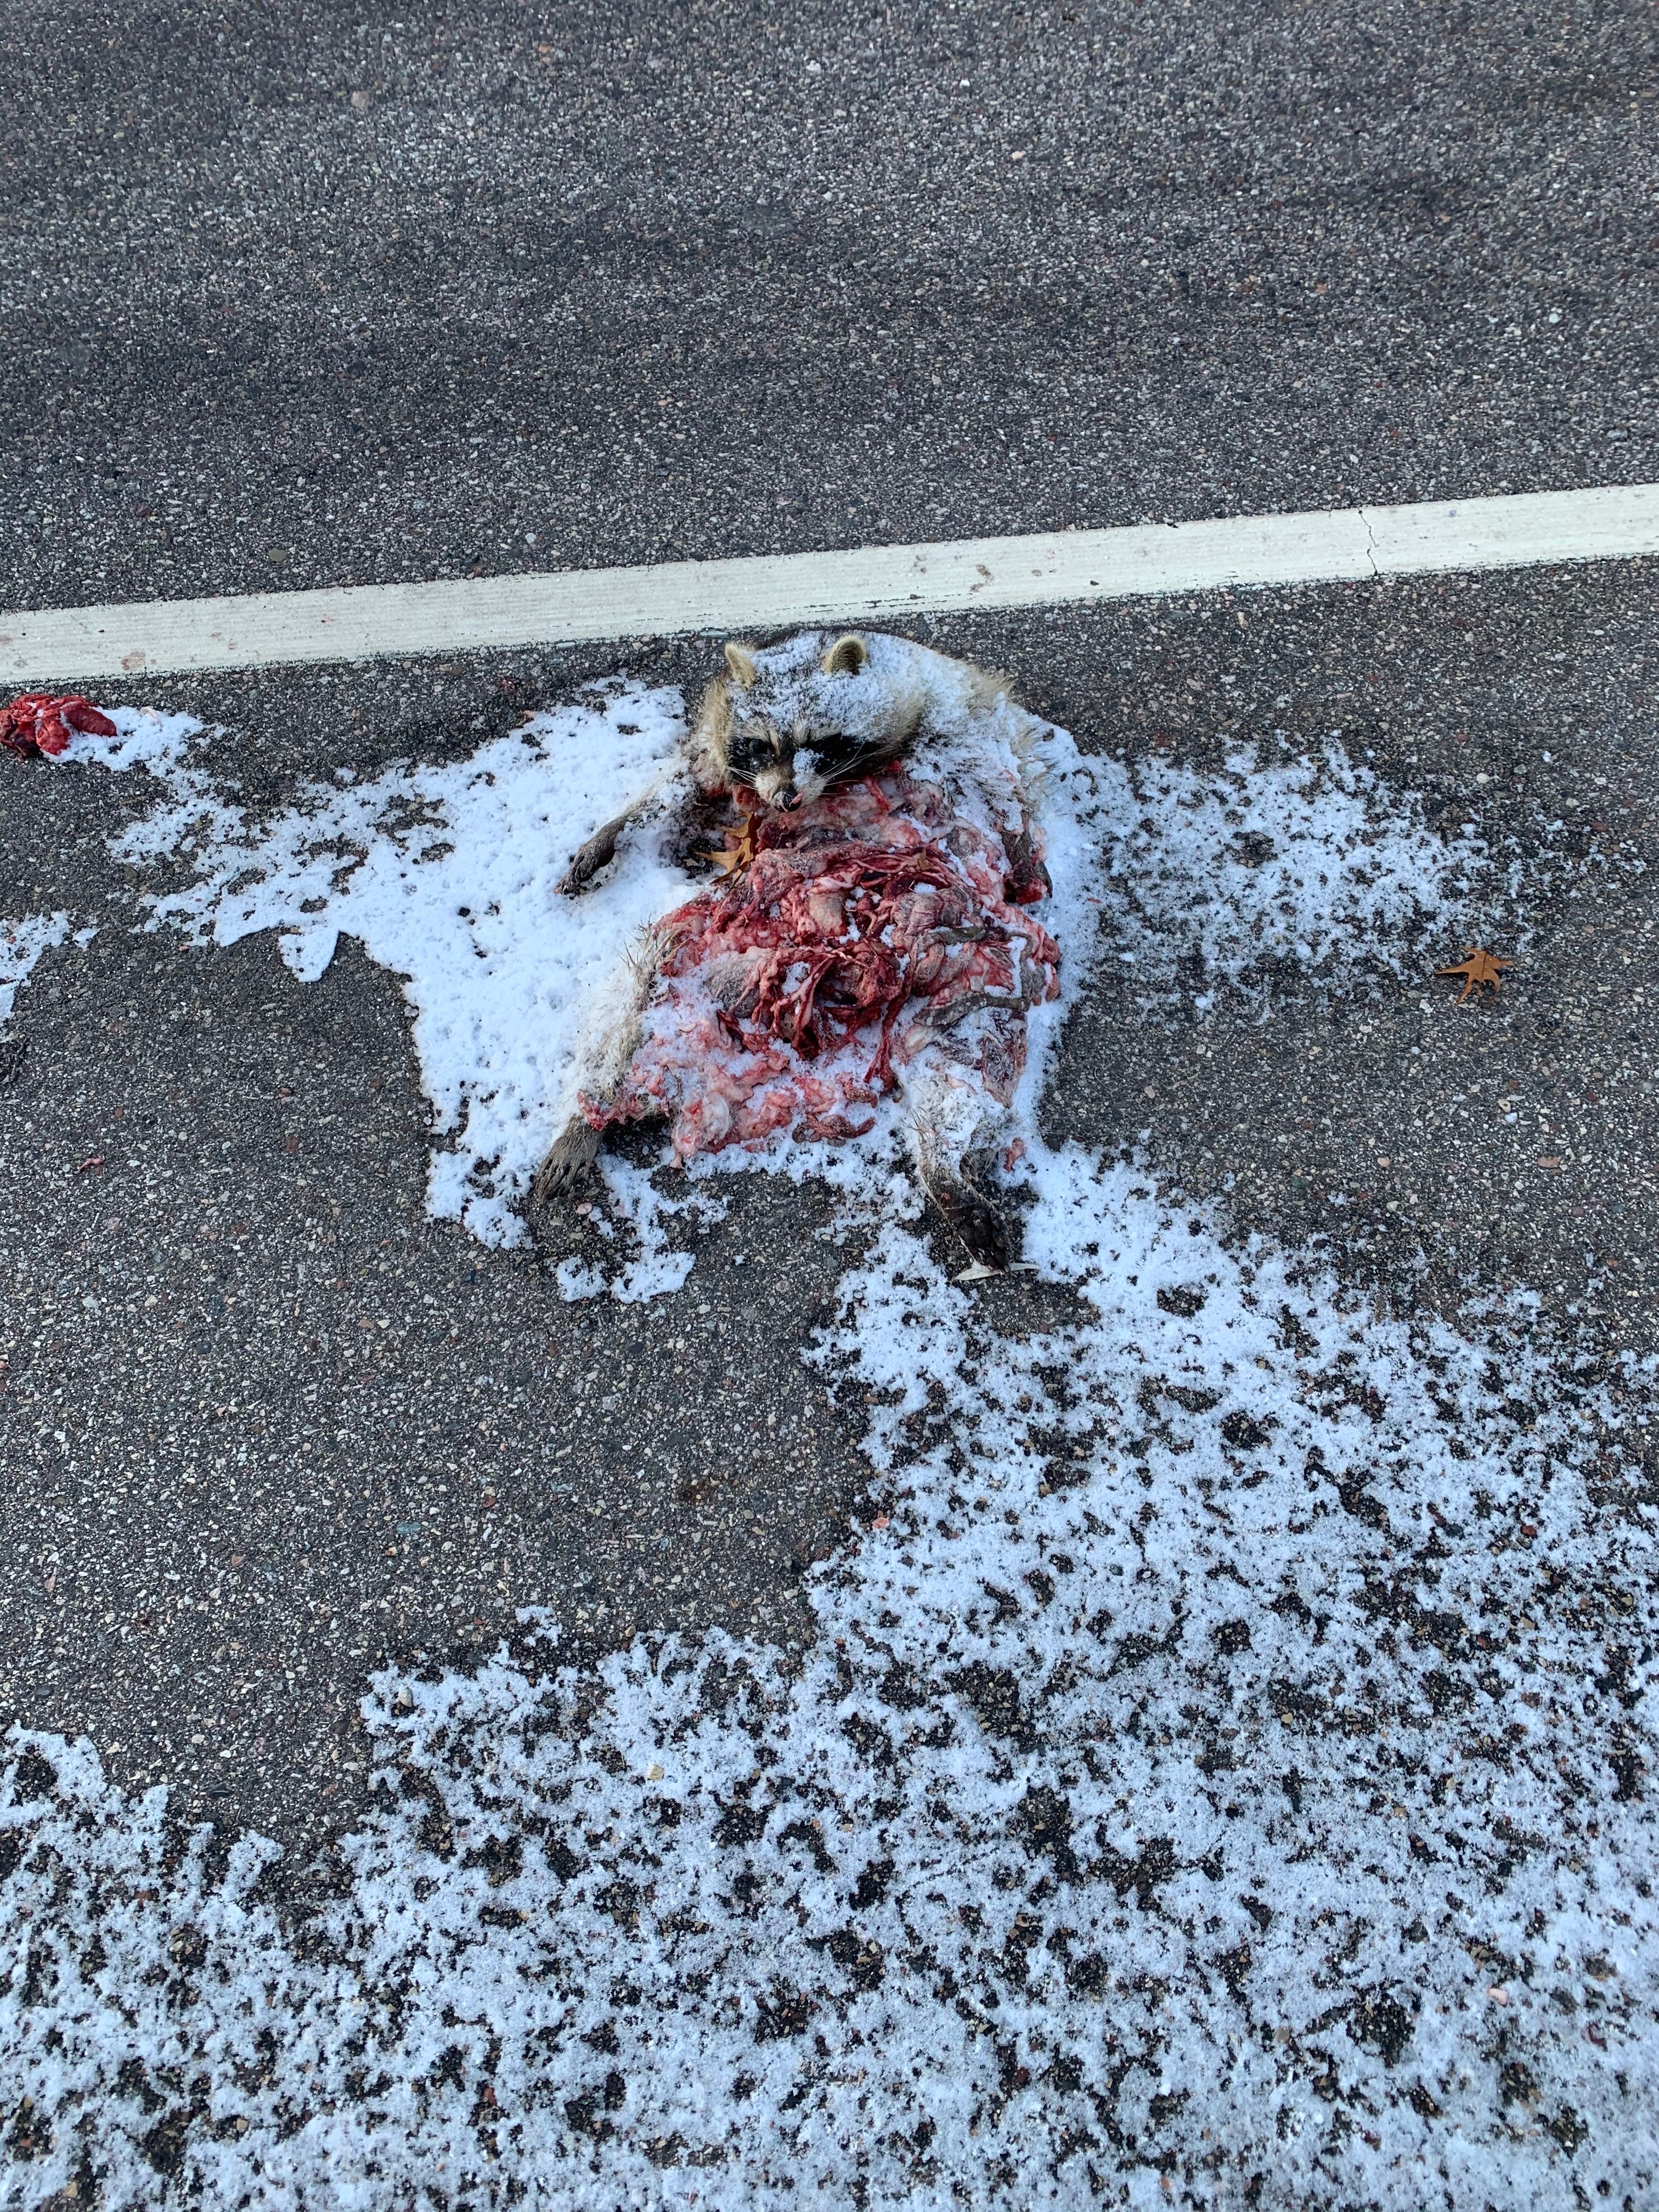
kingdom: Animalia
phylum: Chordata
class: Mammalia
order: Carnivora
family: Procyonidae
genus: Procyon
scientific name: Procyon lotor
